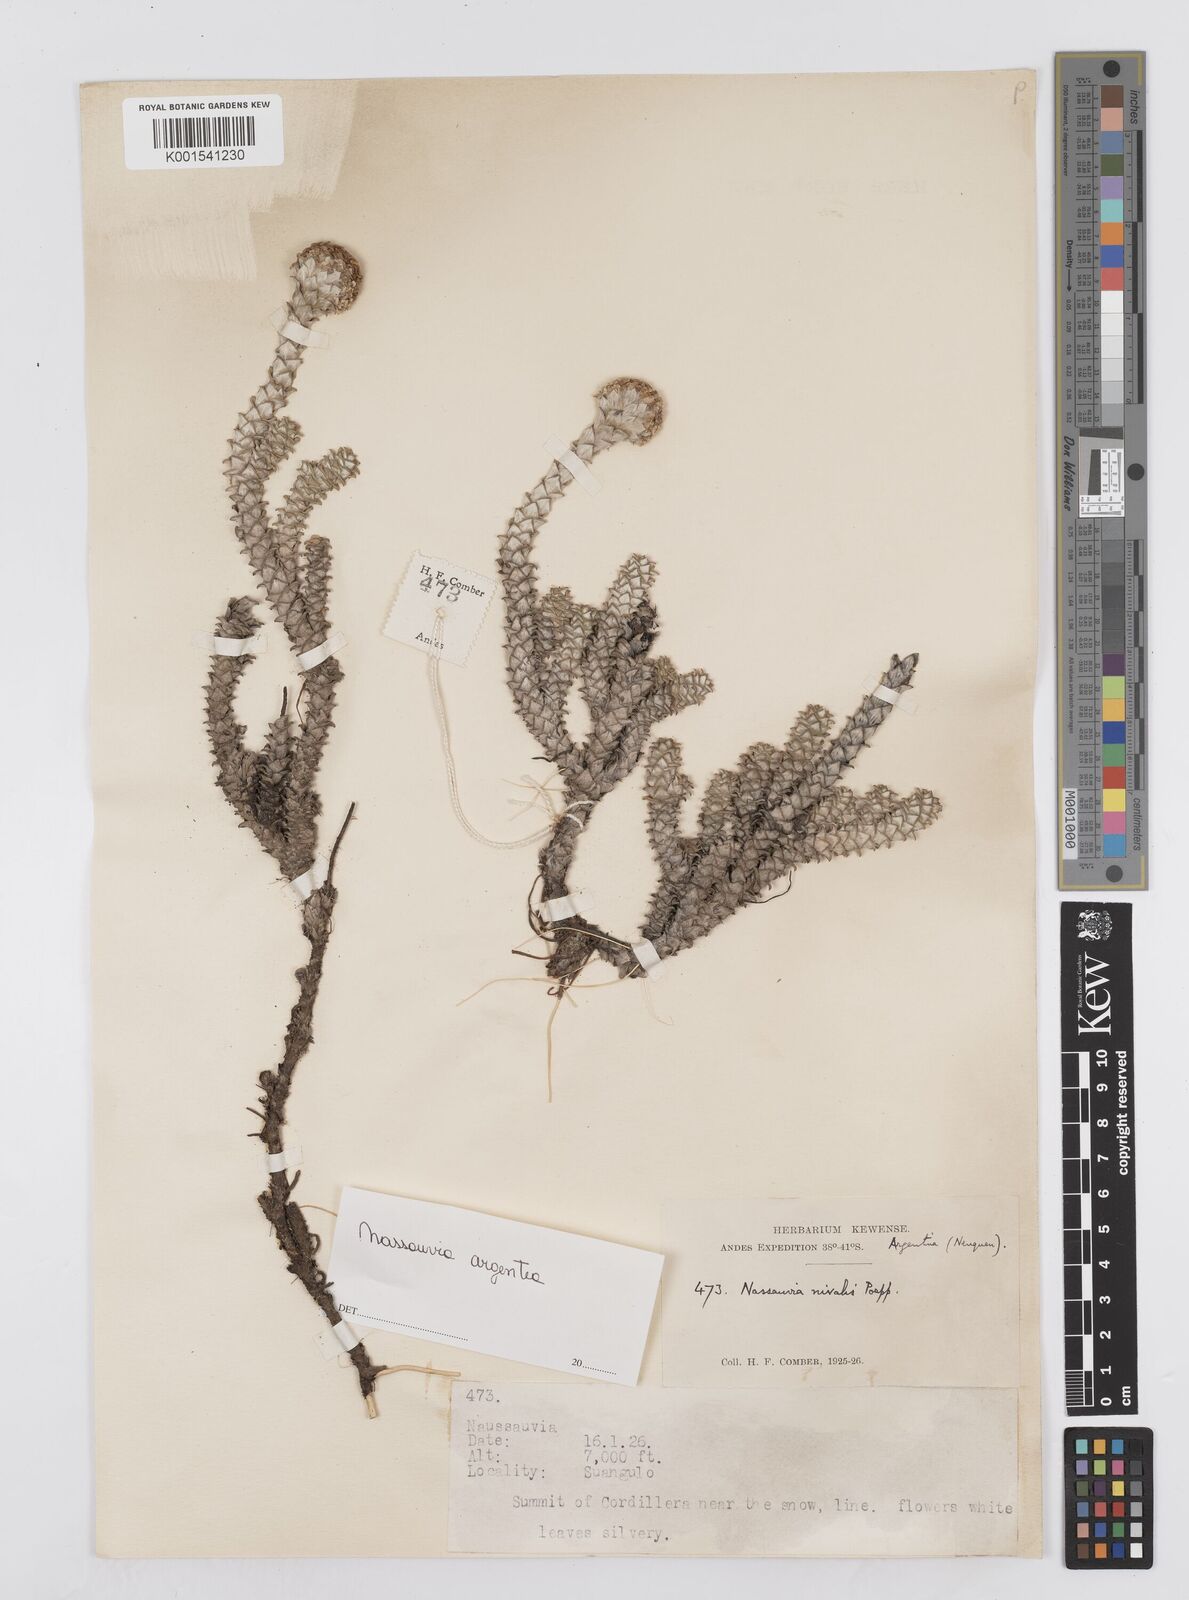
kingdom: Plantae
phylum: Tracheophyta
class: Magnoliopsida
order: Asterales
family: Asteraceae
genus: Nassauvia
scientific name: Nassauvia argentea
